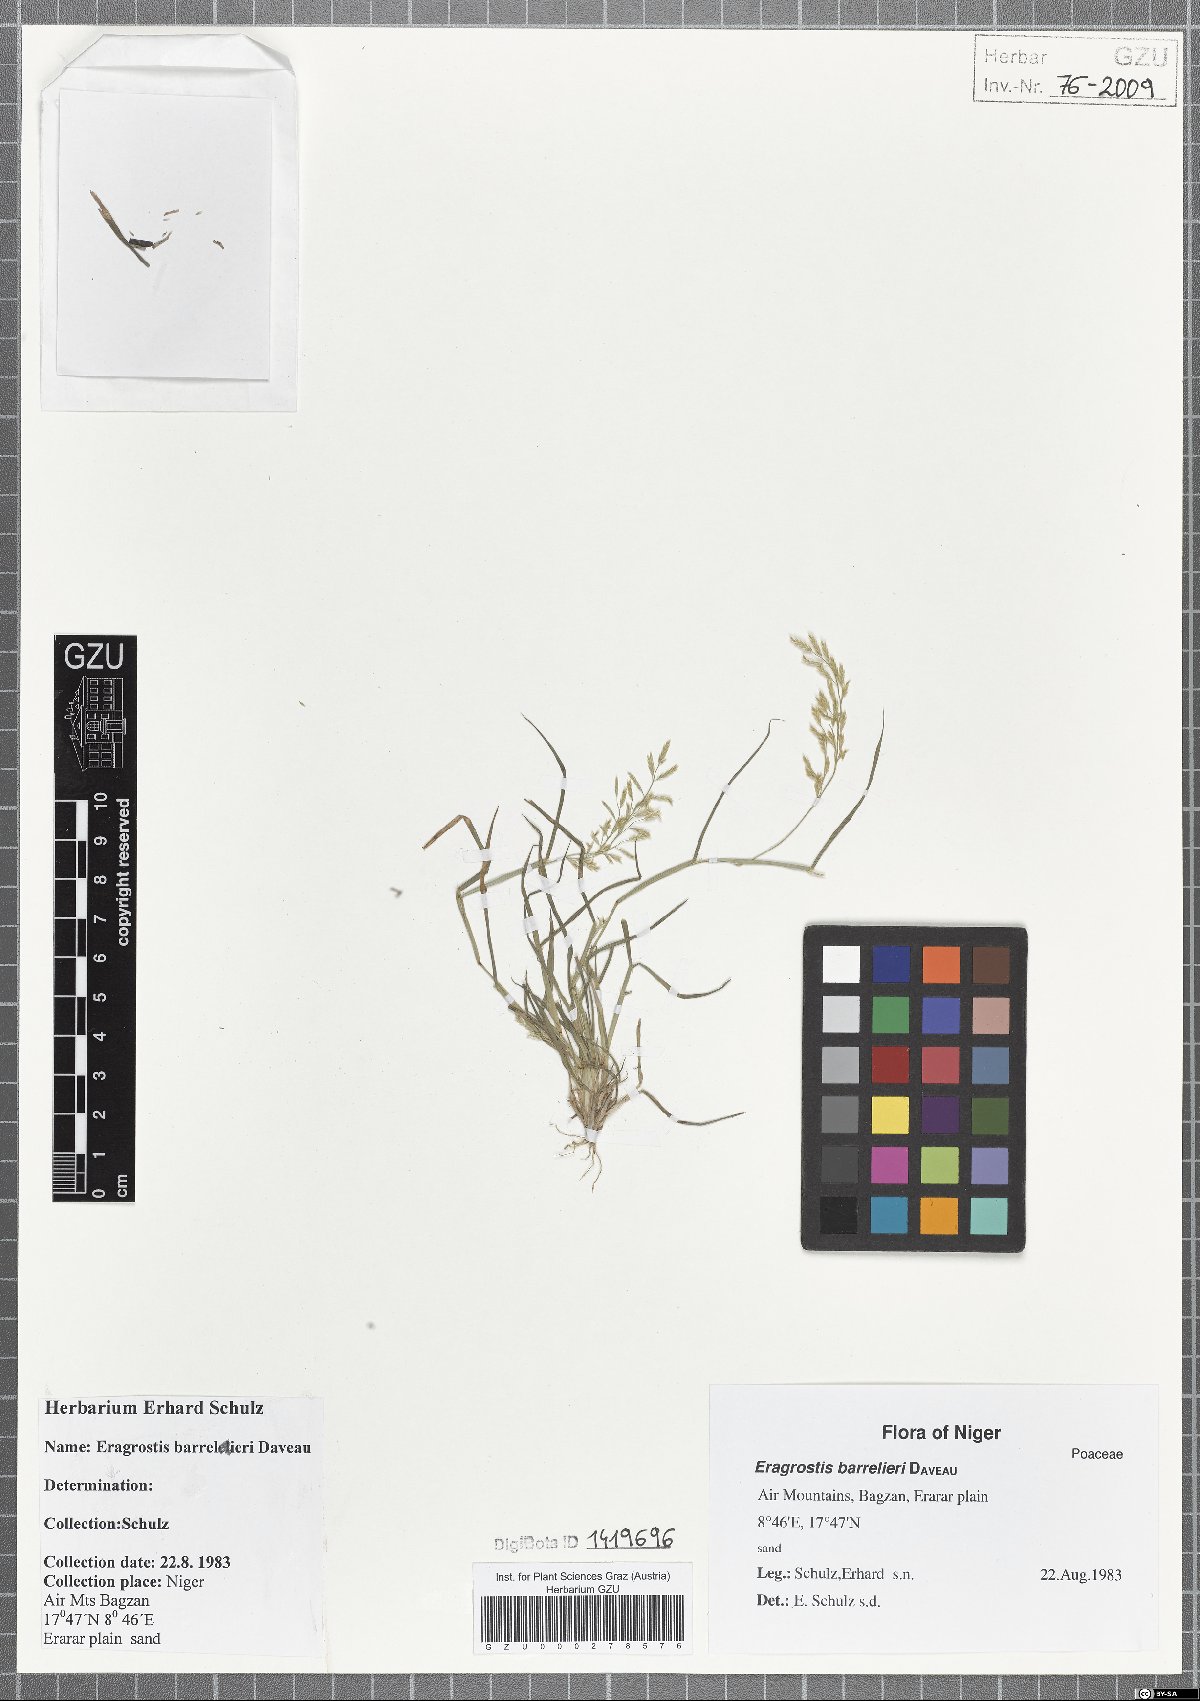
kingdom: Plantae
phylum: Tracheophyta
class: Liliopsida
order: Poales
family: Poaceae
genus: Eragrostis
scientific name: Eragrostis barrelieri
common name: Mediterranean lovegrass
